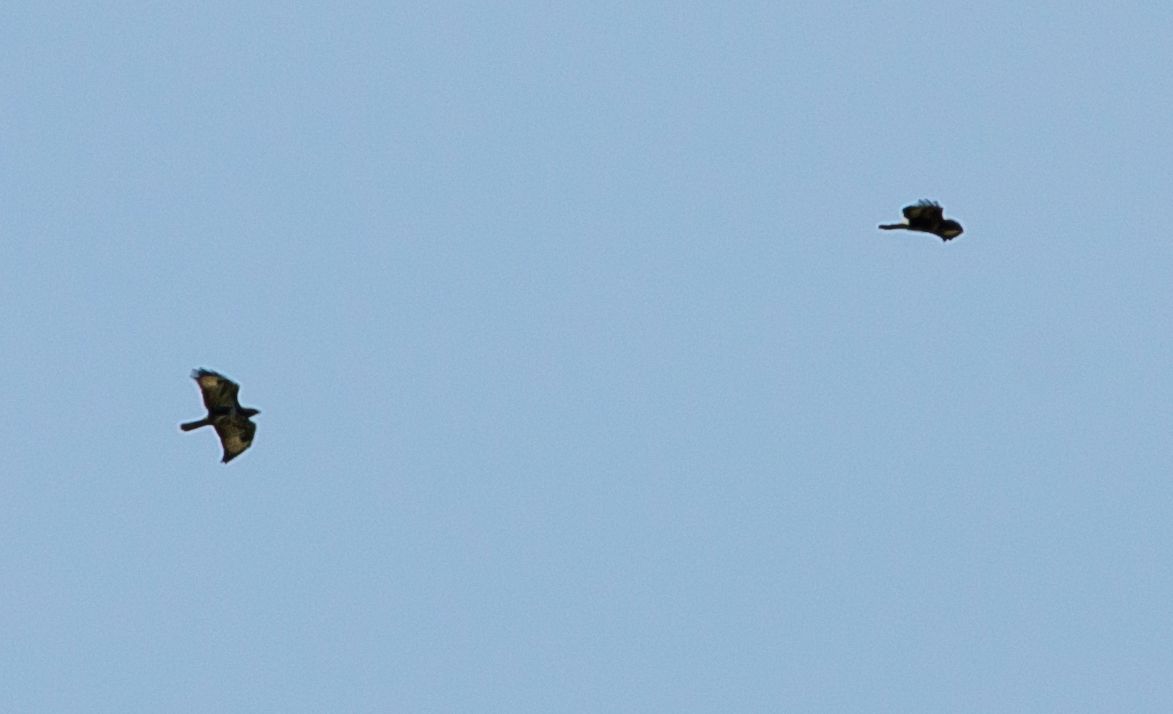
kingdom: Animalia
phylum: Chordata
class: Aves
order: Accipitriformes
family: Accipitridae
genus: Buteo
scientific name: Buteo buteo
